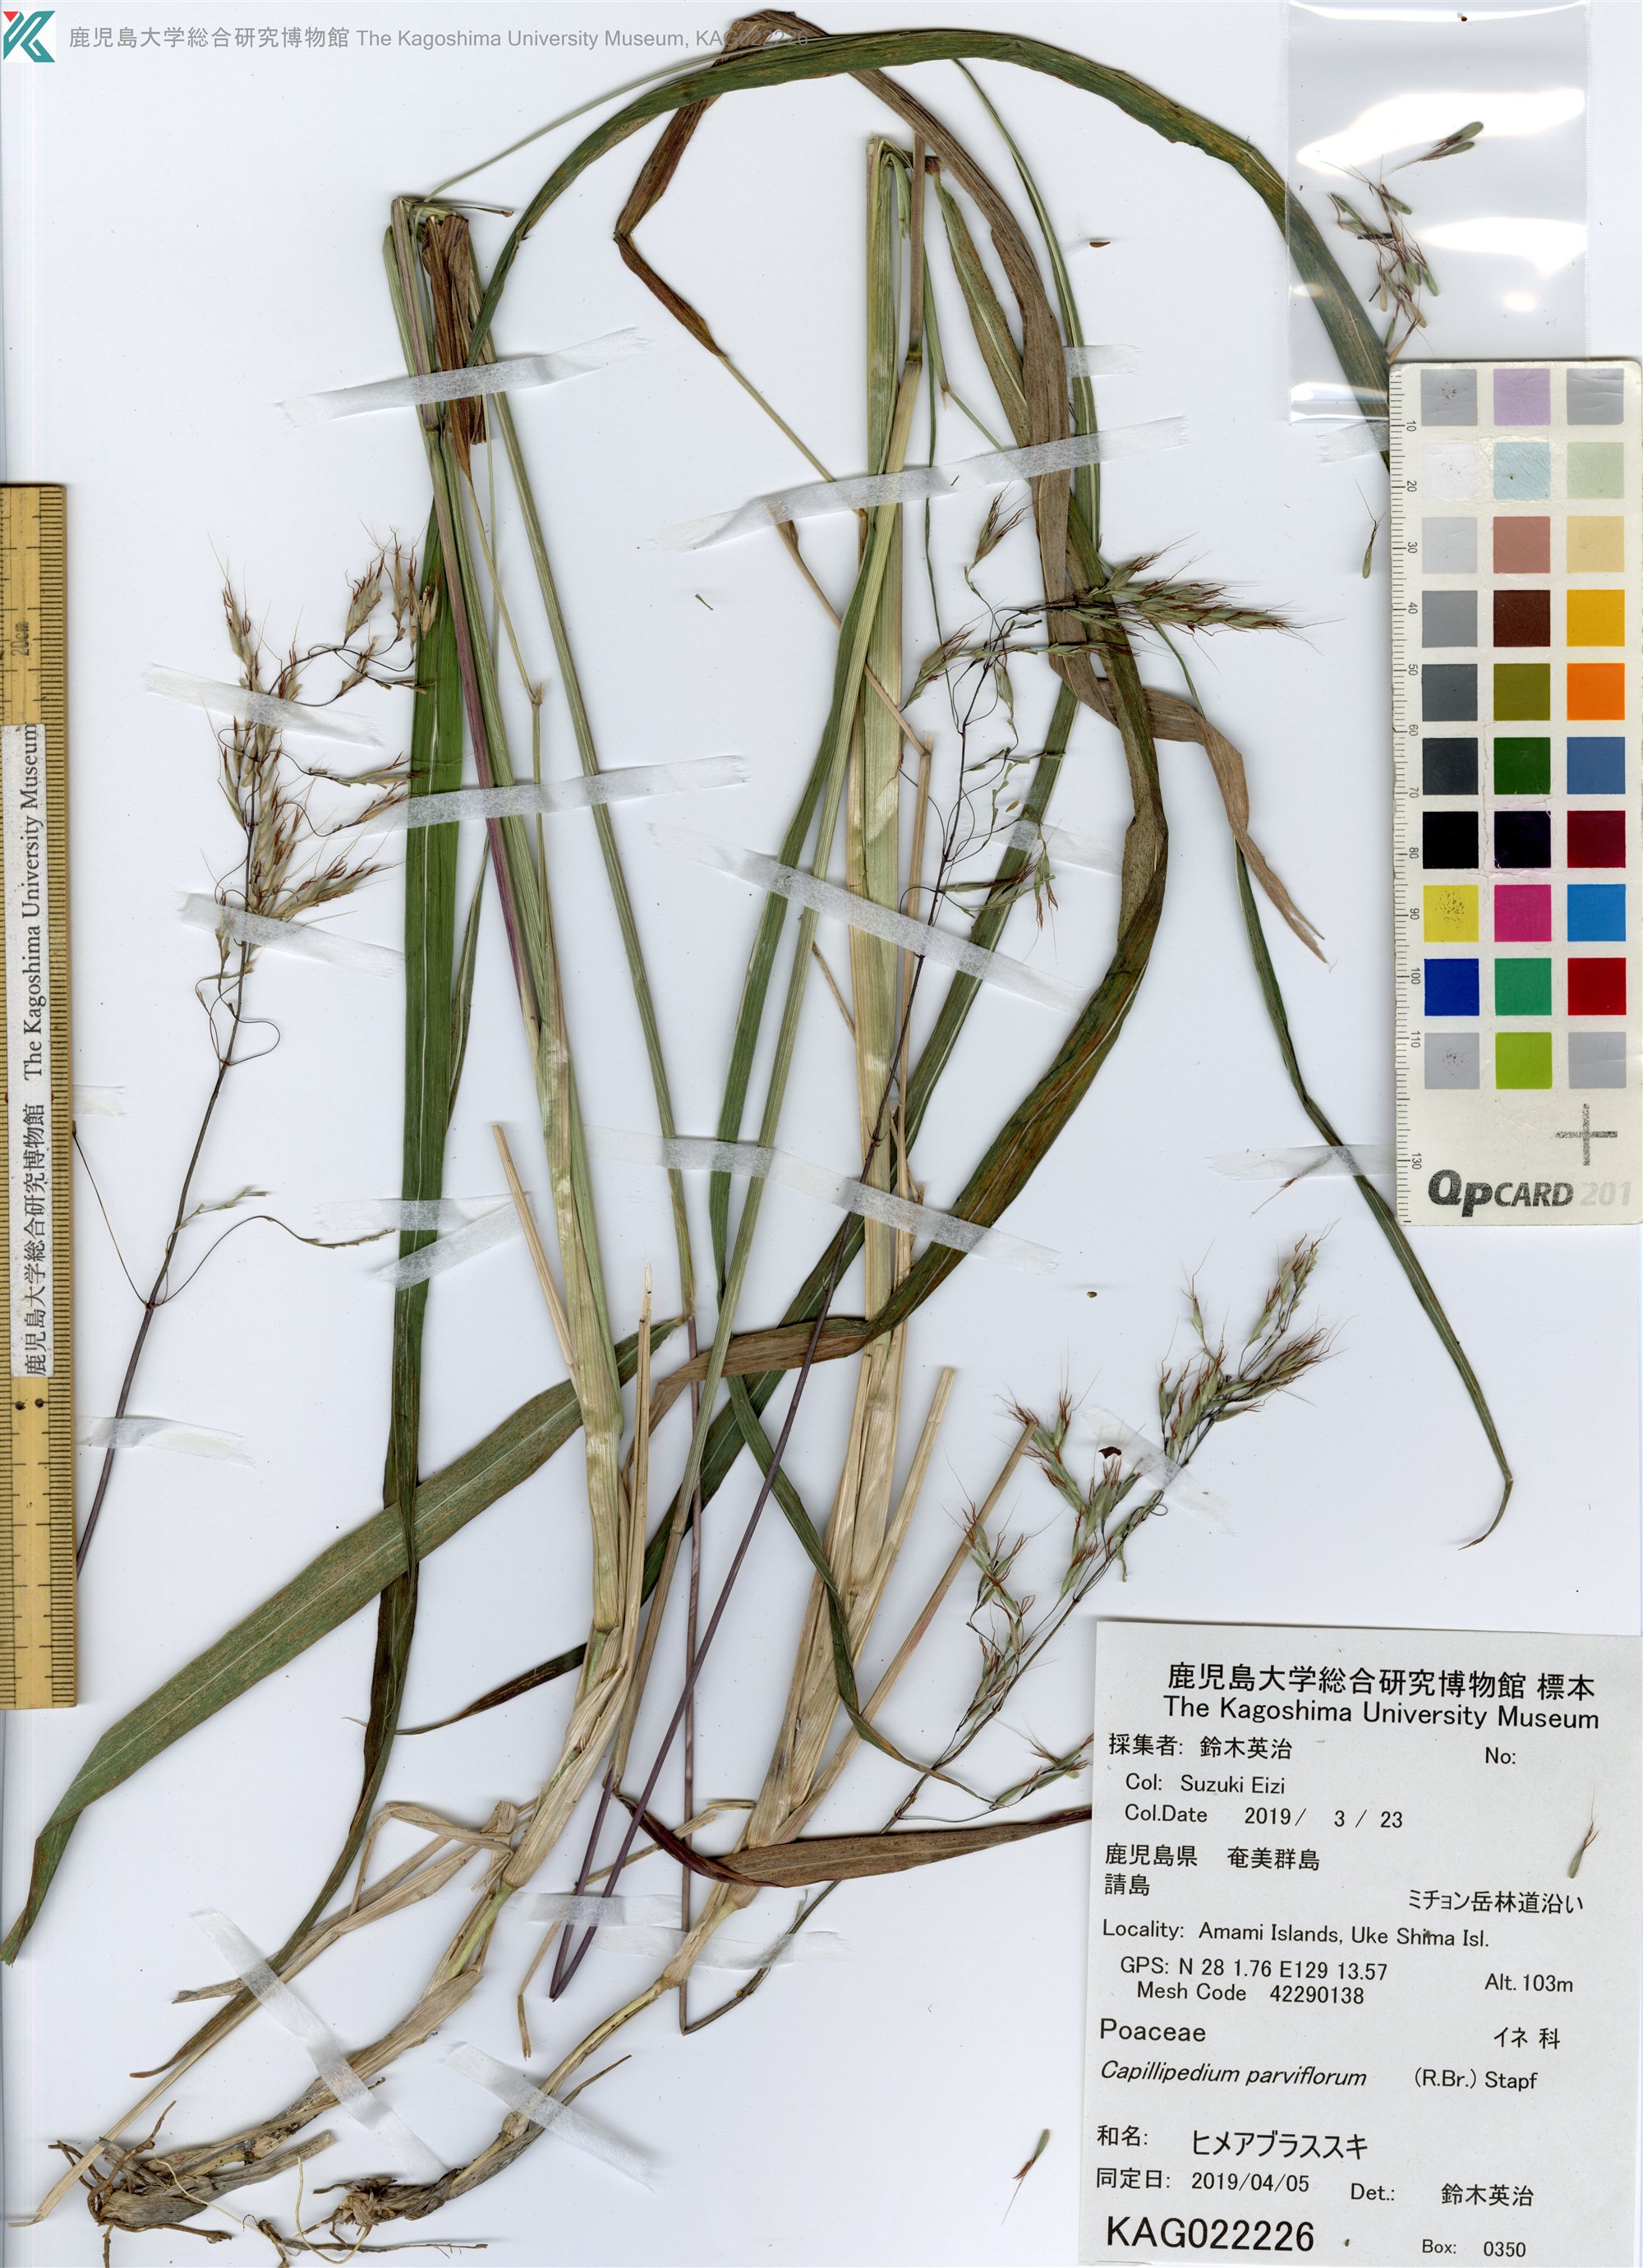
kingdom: Plantae
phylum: Tracheophyta
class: Liliopsida
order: Poales
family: Poaceae
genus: Capillipedium
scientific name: Capillipedium parviflorum
